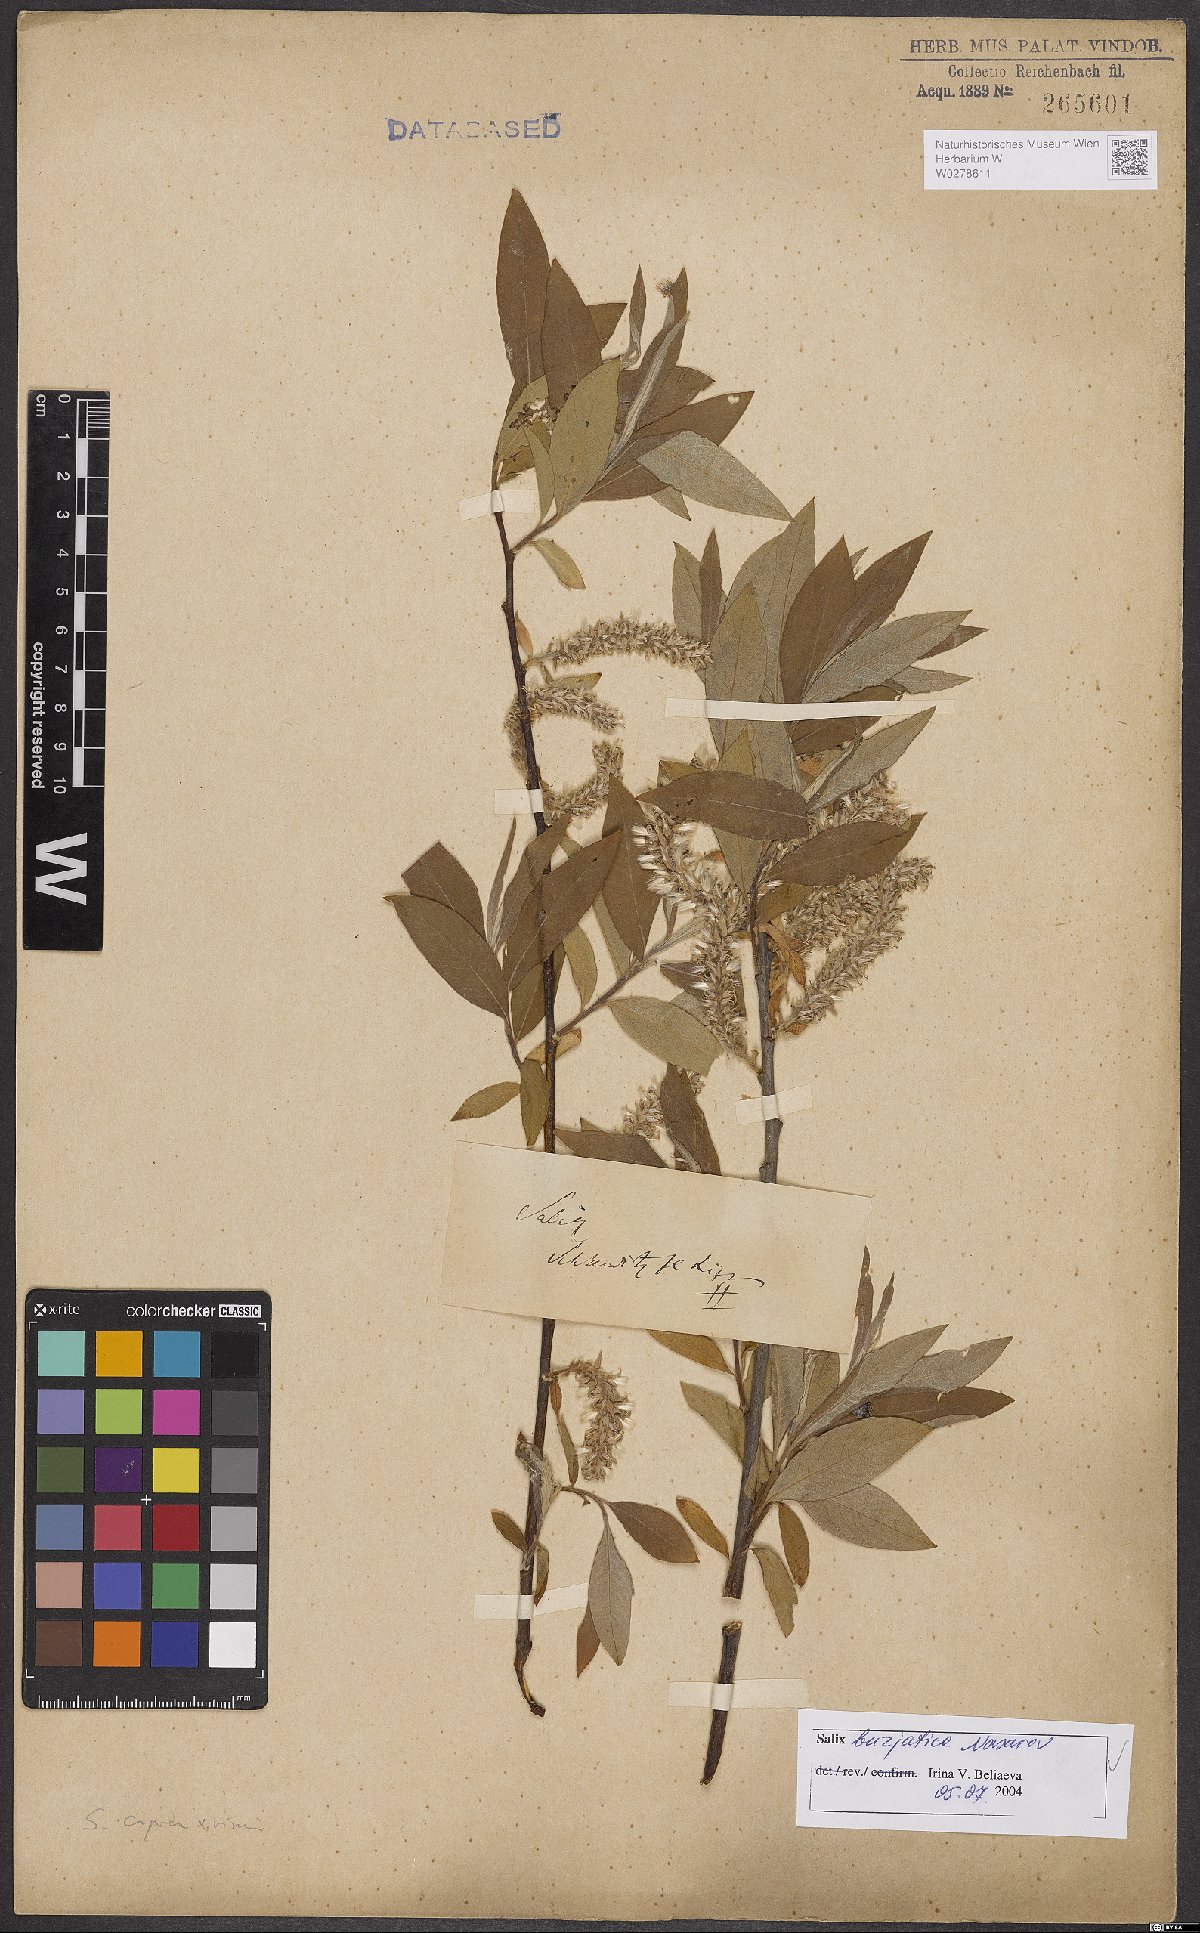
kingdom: Plantae
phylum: Tracheophyta
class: Magnoliopsida
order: Malpighiales
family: Salicaceae
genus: Salix
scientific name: Salix gmelinii
